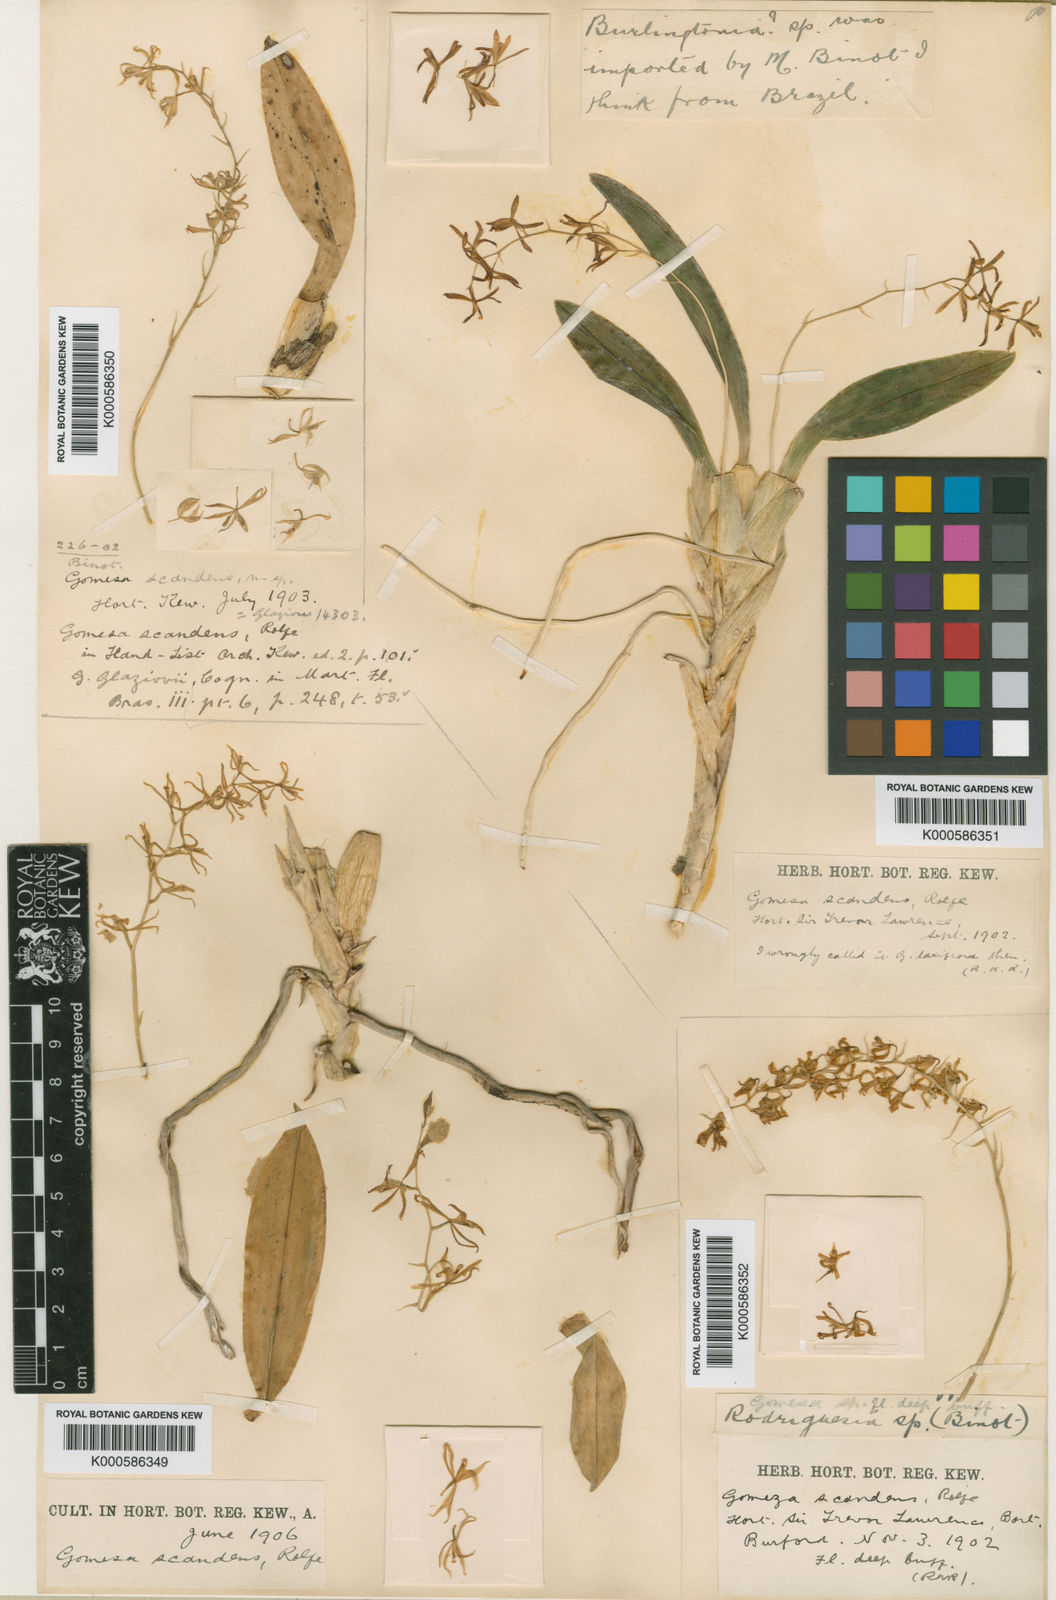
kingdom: Plantae
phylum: Tracheophyta
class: Liliopsida
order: Asparagales
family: Orchidaceae
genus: Gomesa
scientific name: Gomesa glaziovii
